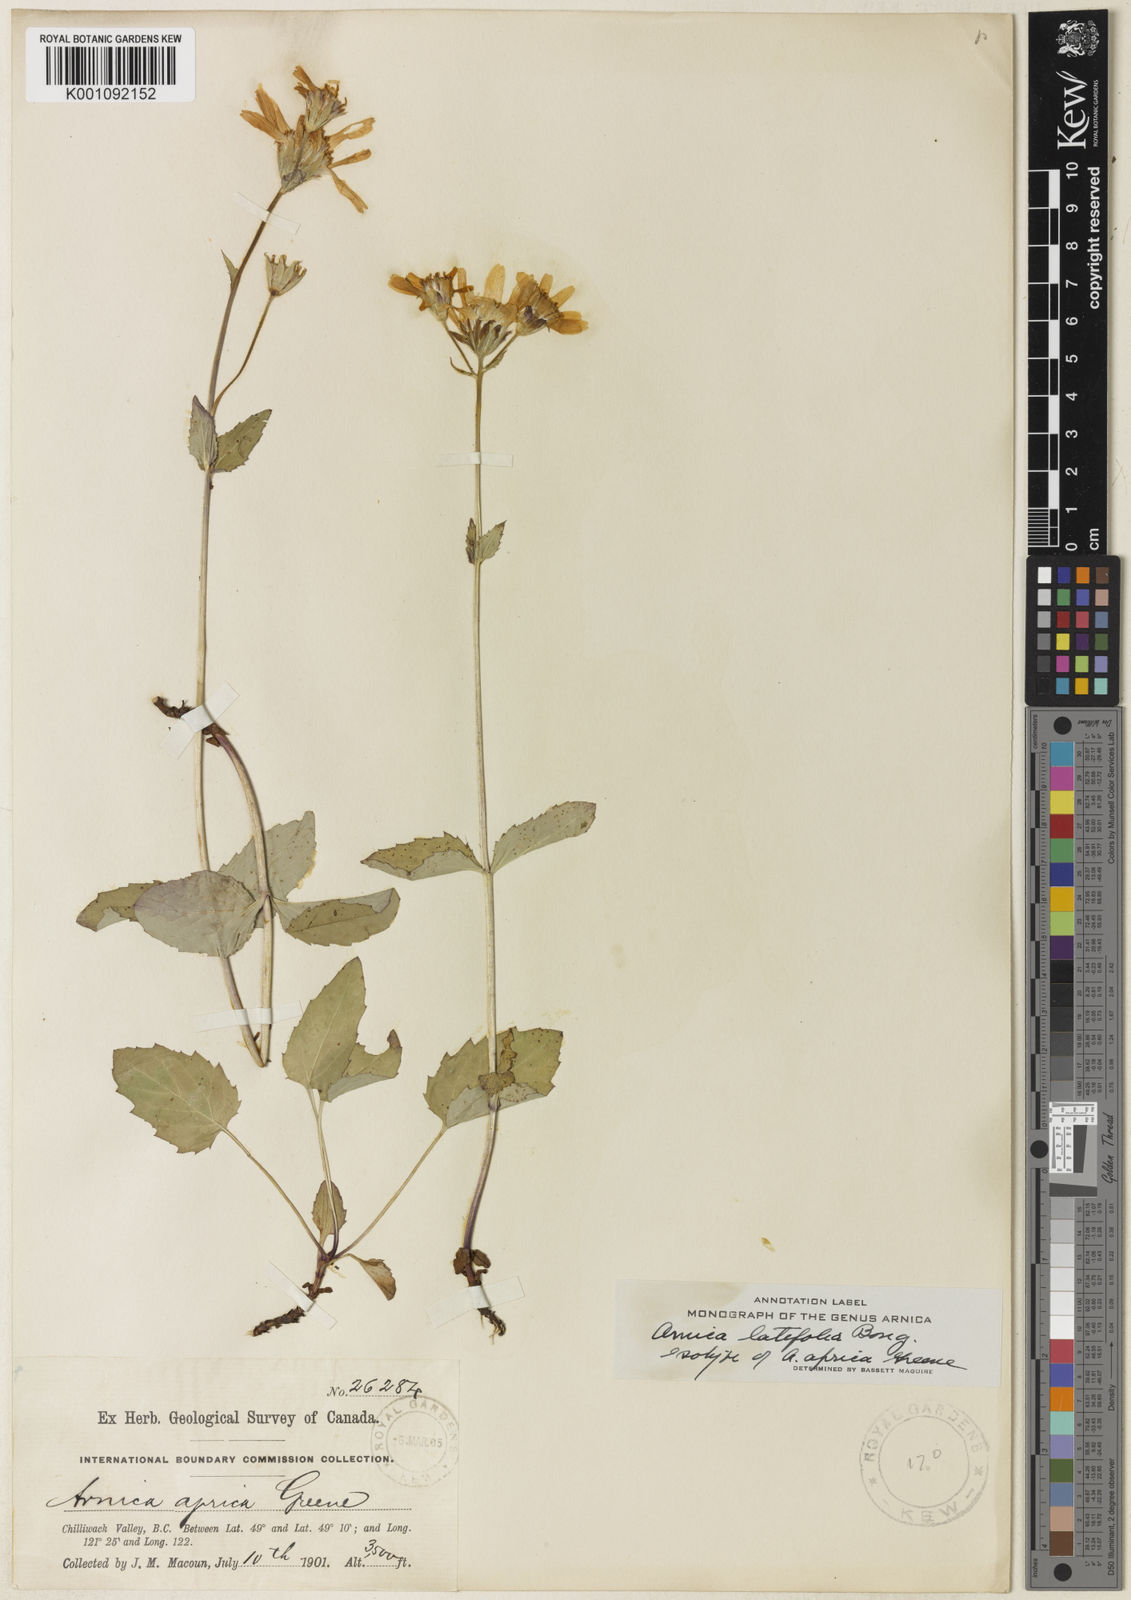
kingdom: Plantae
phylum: Tracheophyta
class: Magnoliopsida
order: Asterales
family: Asteraceae
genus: Arnica
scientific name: Arnica latifolia
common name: Arnica
